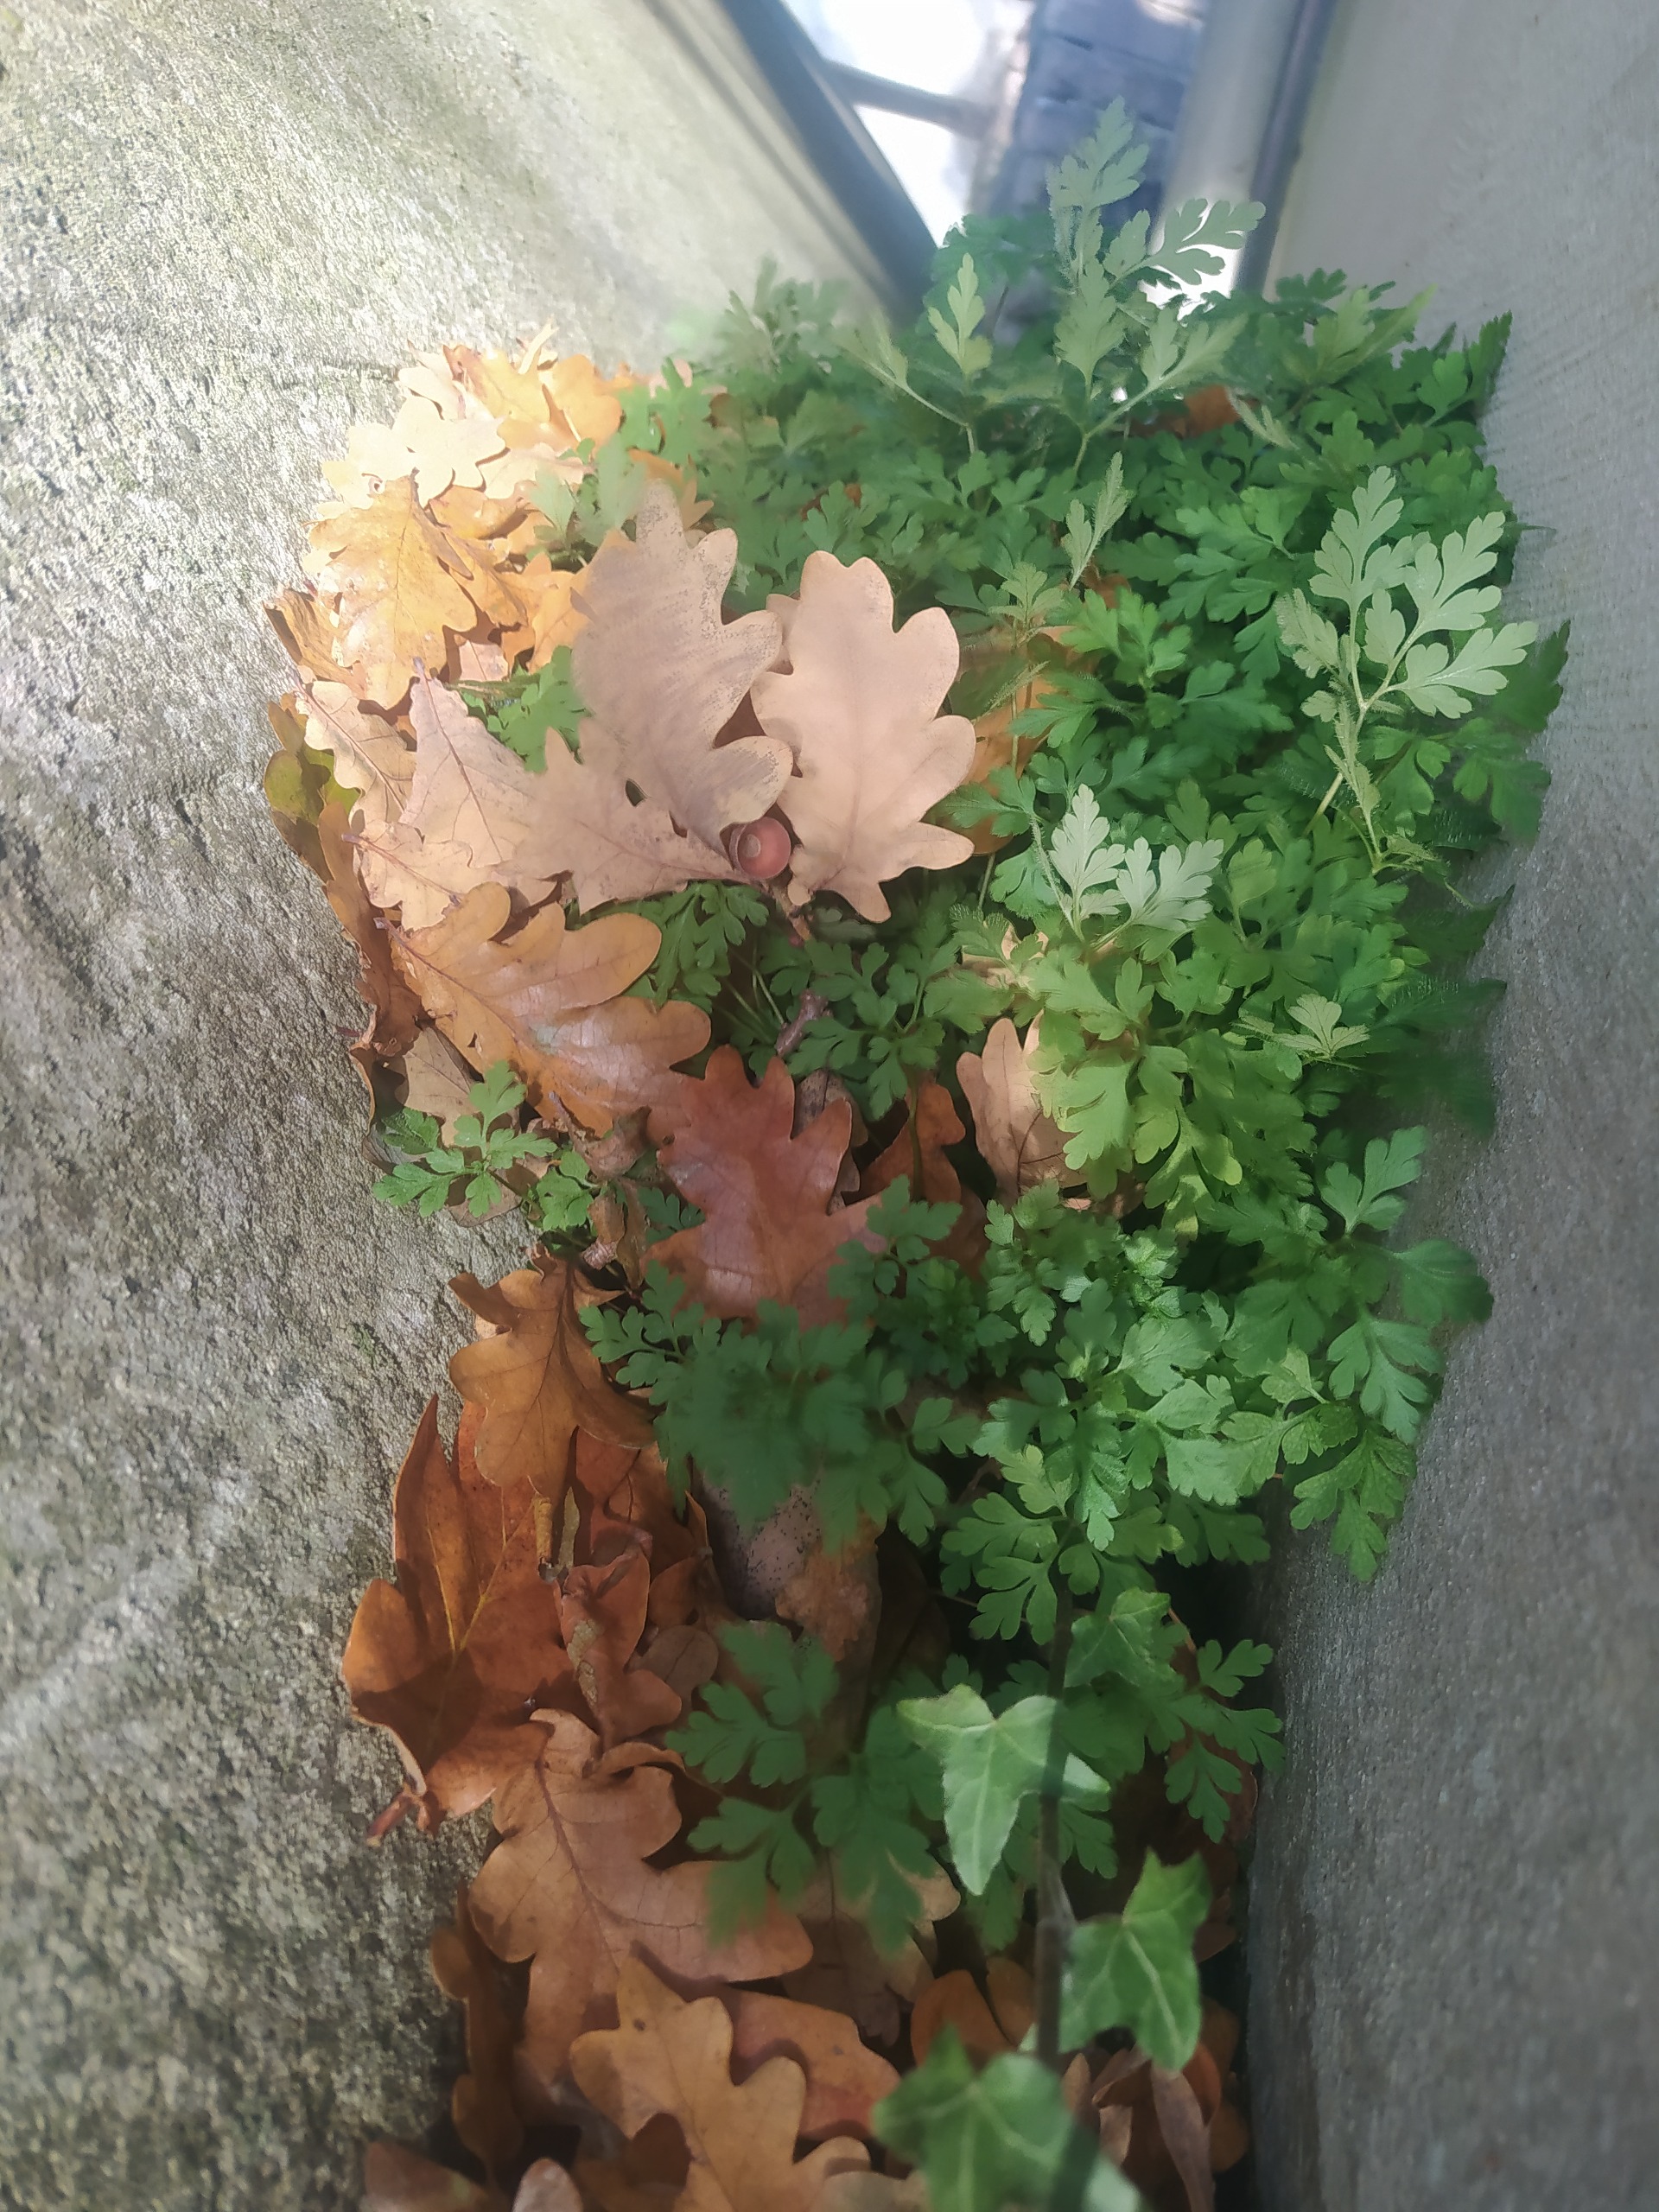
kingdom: Plantae
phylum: Tracheophyta
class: Magnoliopsida
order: Geraniales
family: Geraniaceae
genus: Geranium
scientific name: Geranium robertianum
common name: Stinkende storkenæb
